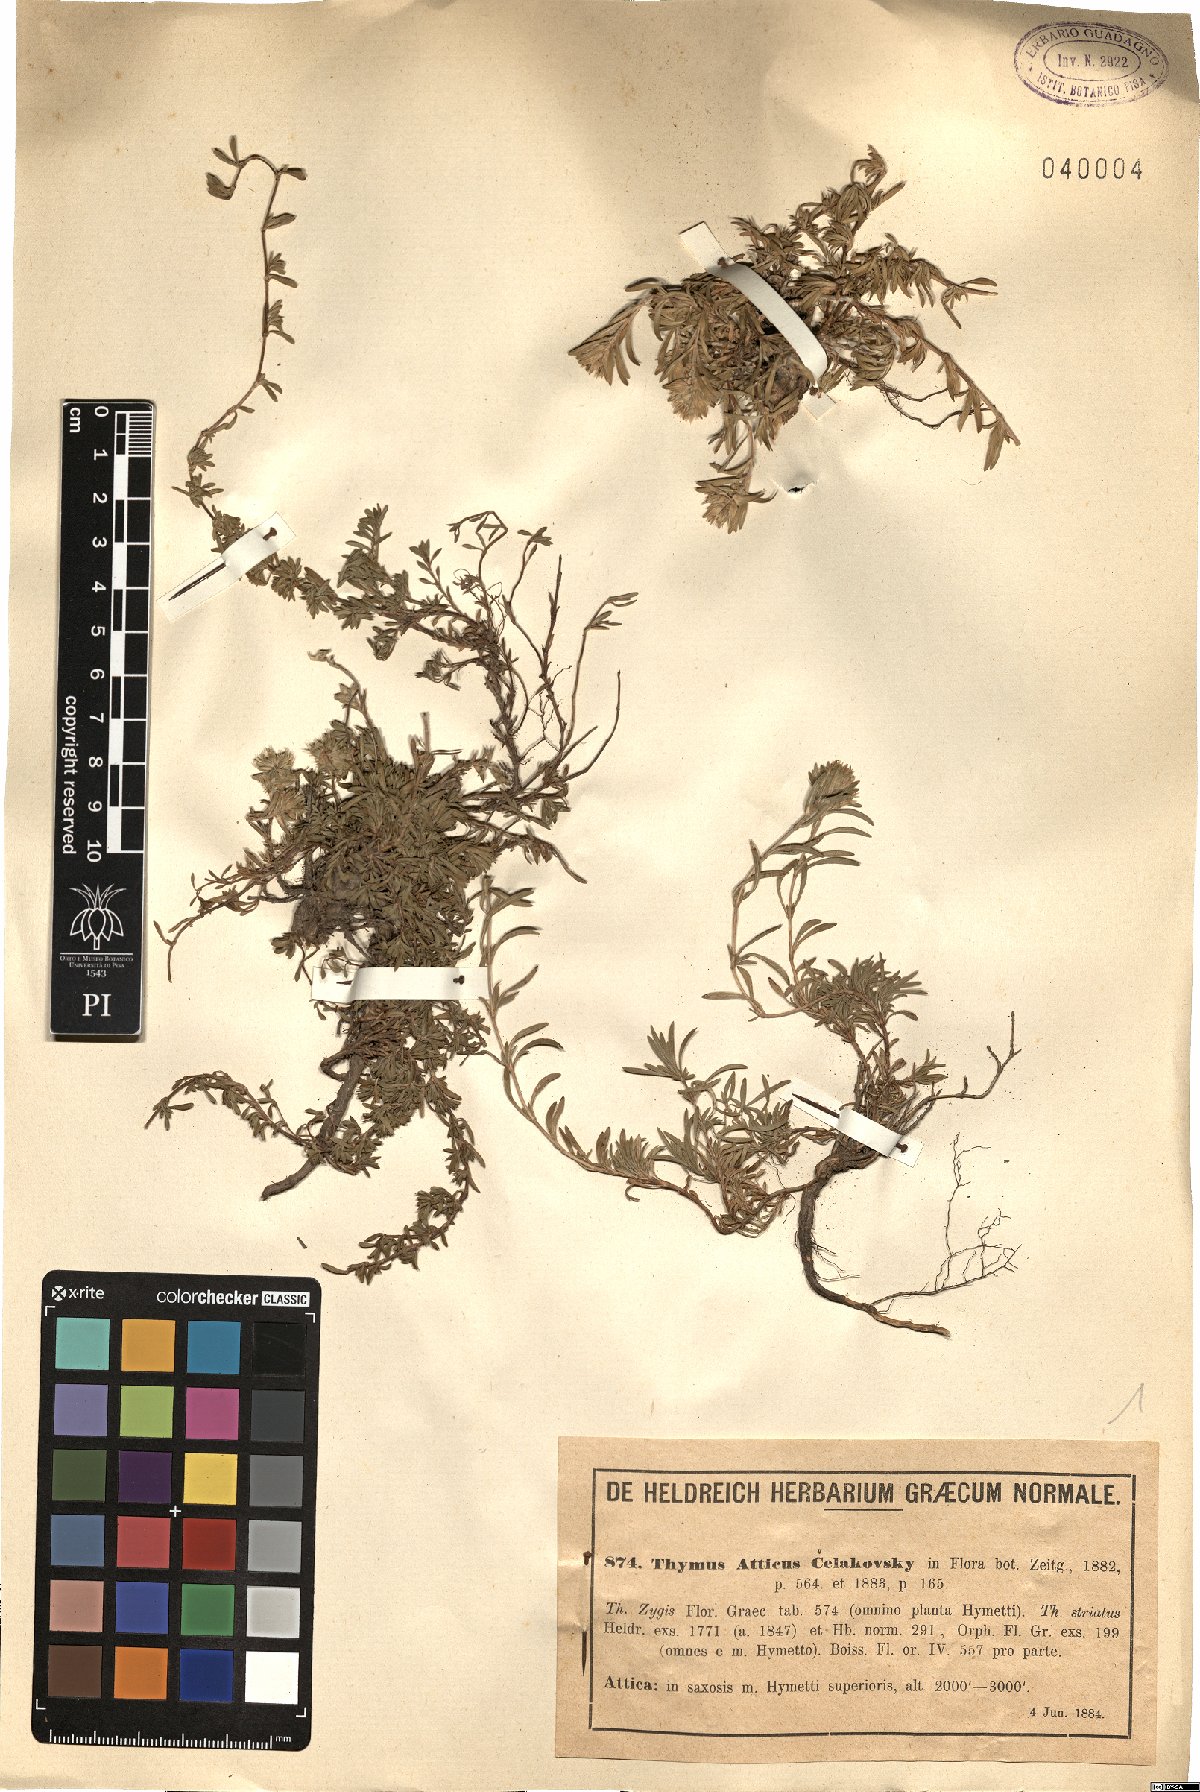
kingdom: Plantae
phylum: Tracheophyta
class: Magnoliopsida
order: Lamiales
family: Lamiaceae
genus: Thymus
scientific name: Thymus atticus
